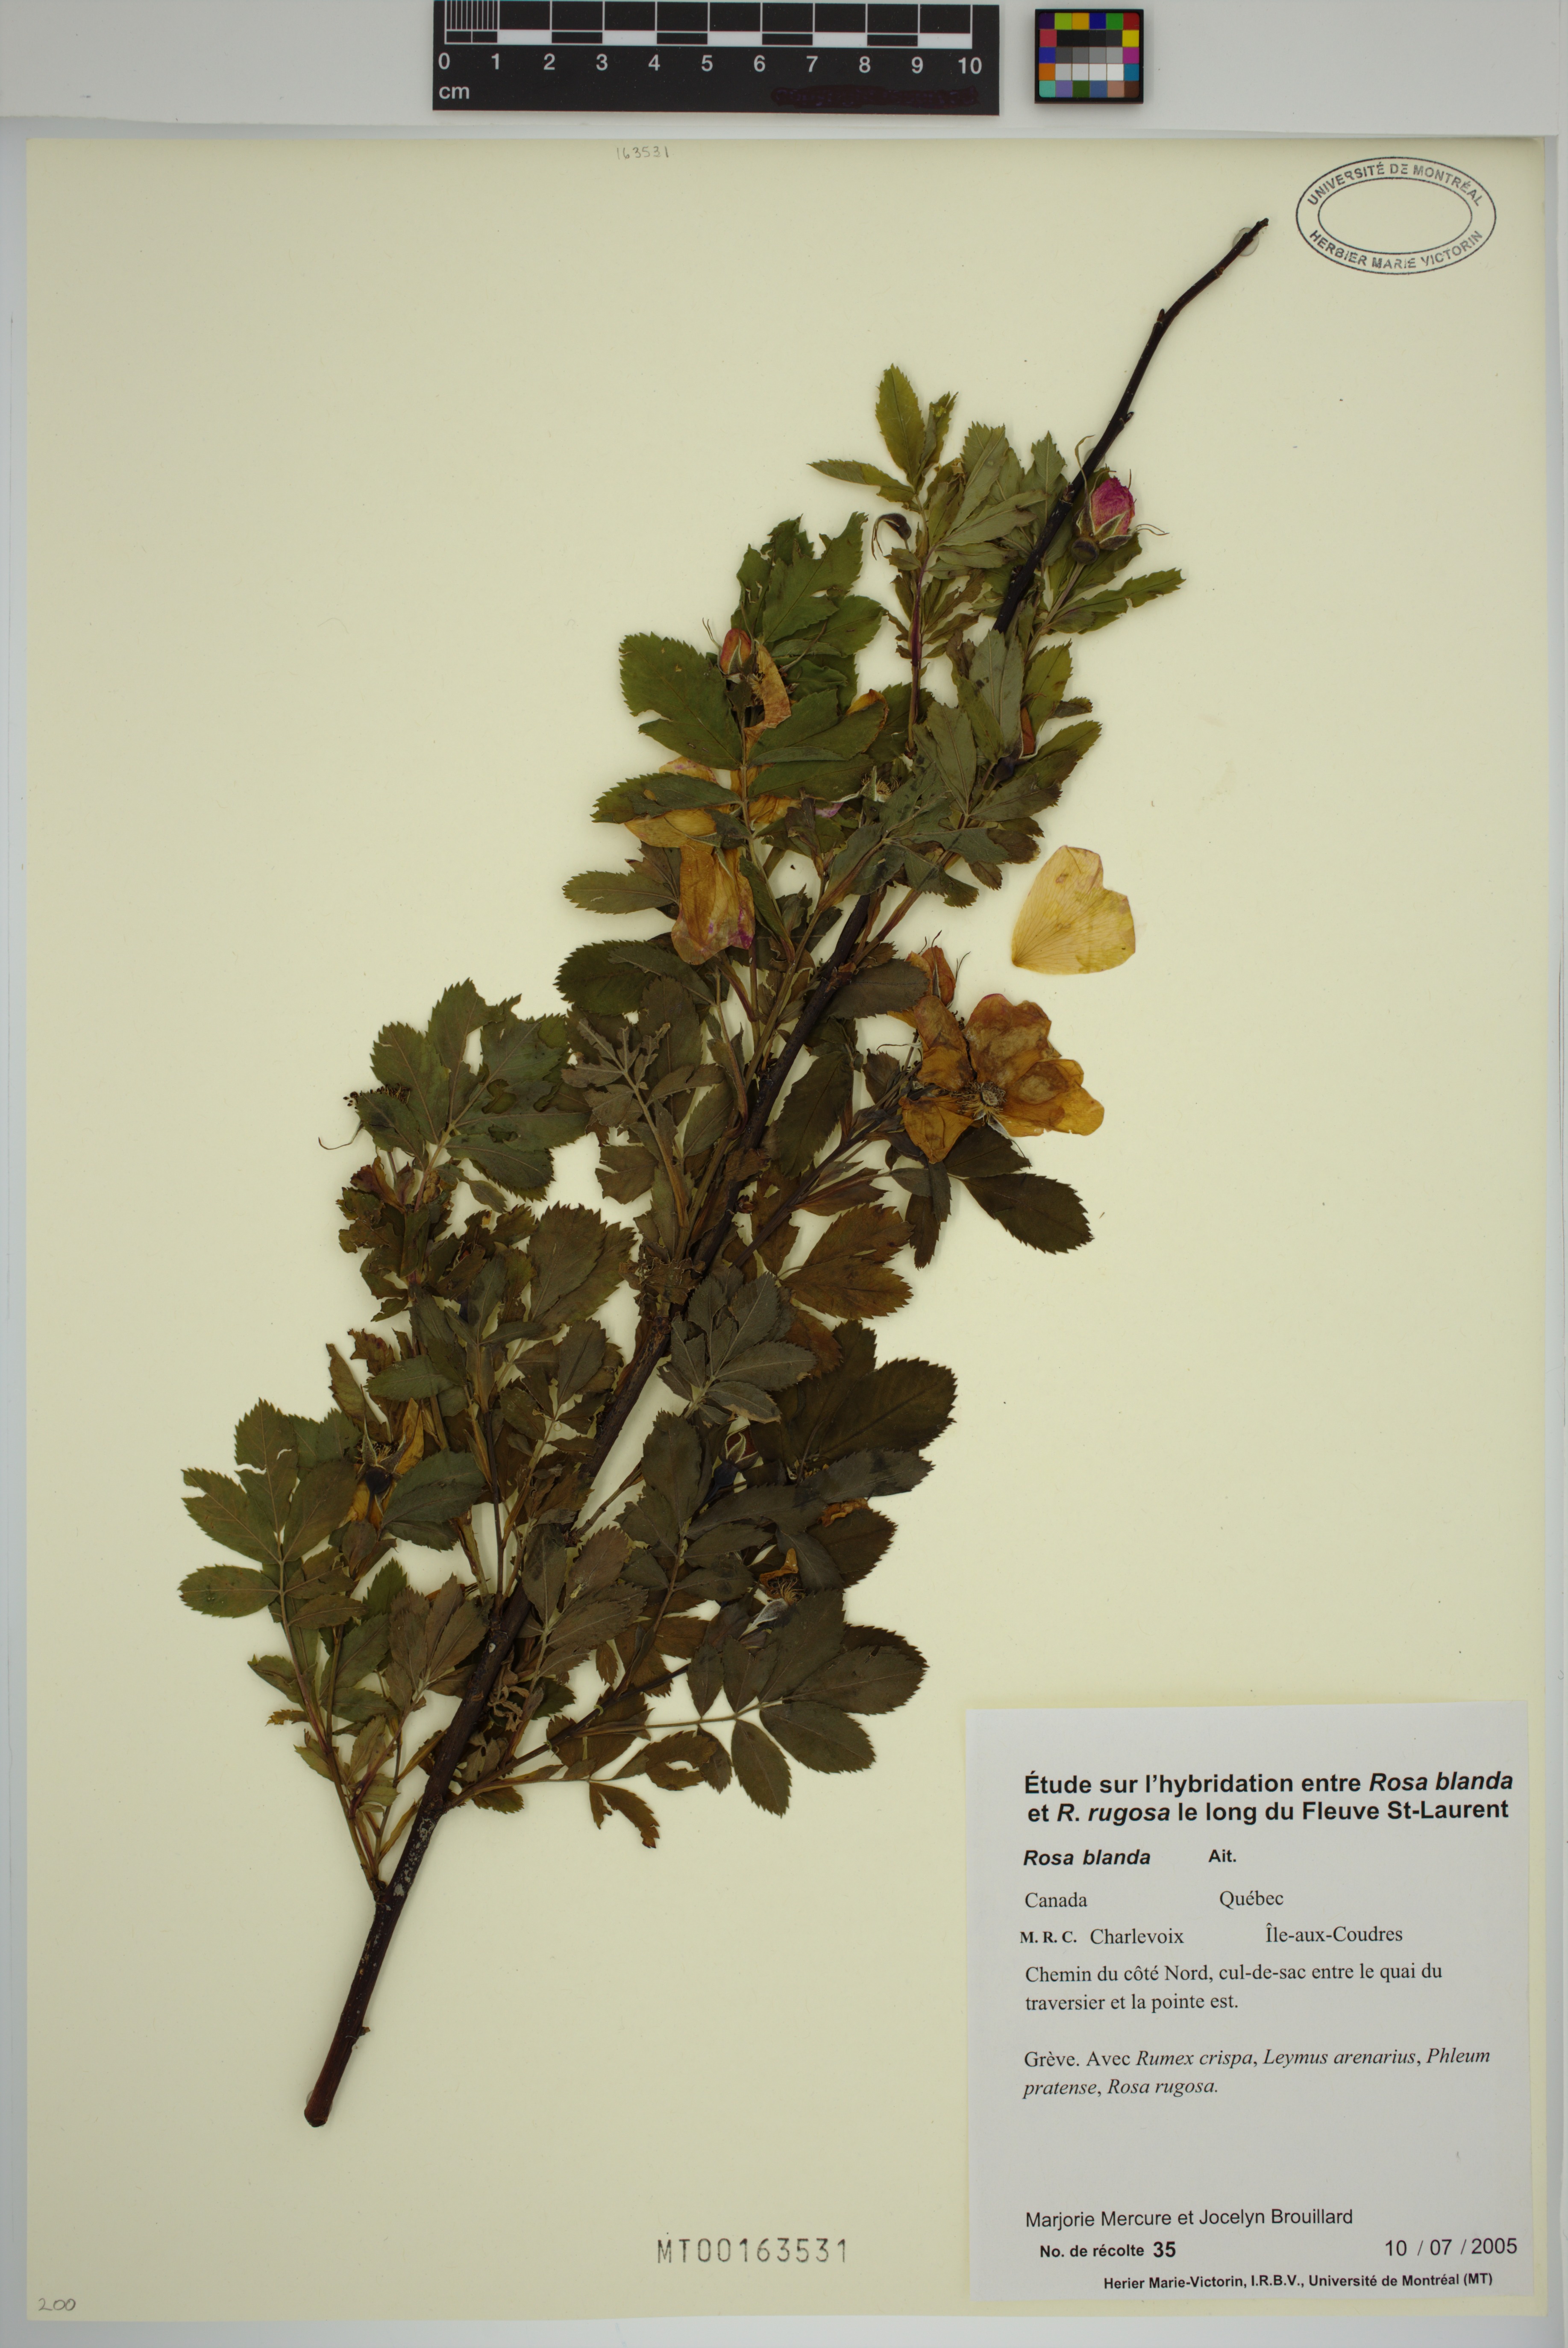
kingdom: Plantae
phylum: Tracheophyta
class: Magnoliopsida
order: Rosales
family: Rosaceae
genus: Rosa
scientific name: Rosa blanda
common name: Smooth rose
